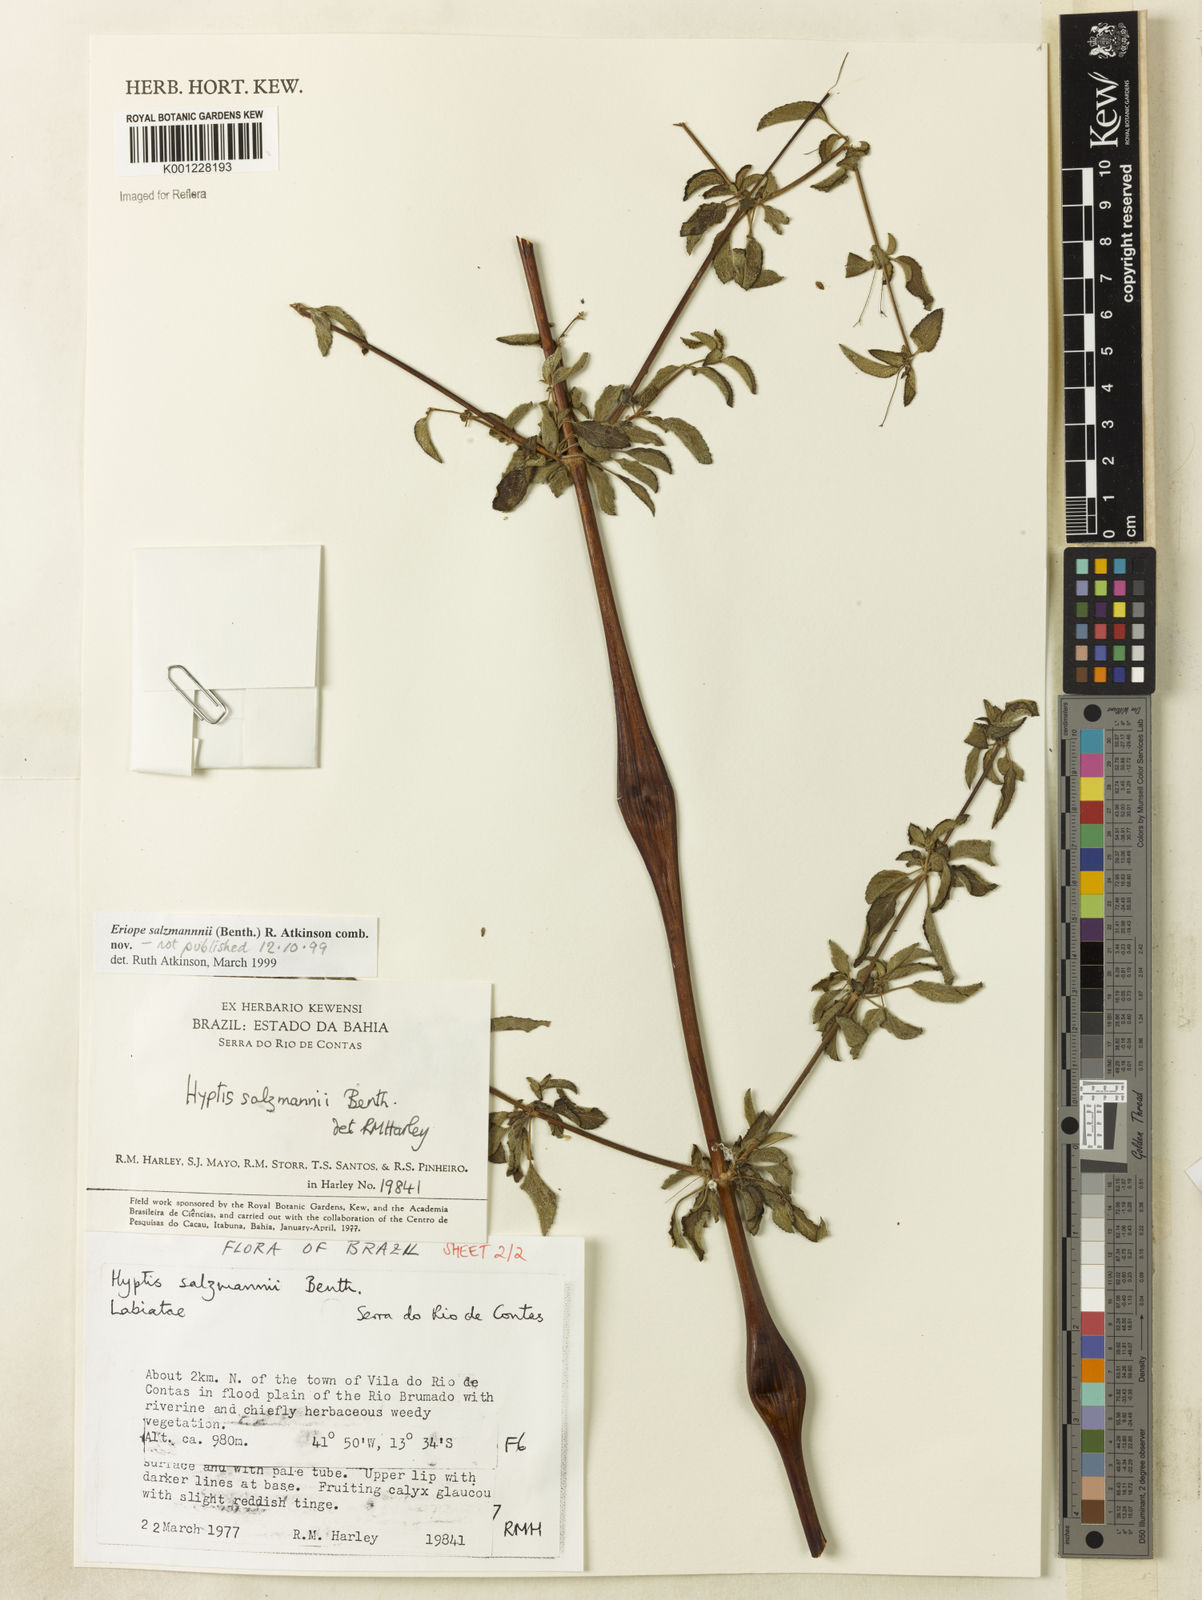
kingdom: Plantae
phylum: Tracheophyta
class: Magnoliopsida
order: Lamiales
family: Lamiaceae
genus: Hypenia
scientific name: Hypenia salzmannii
